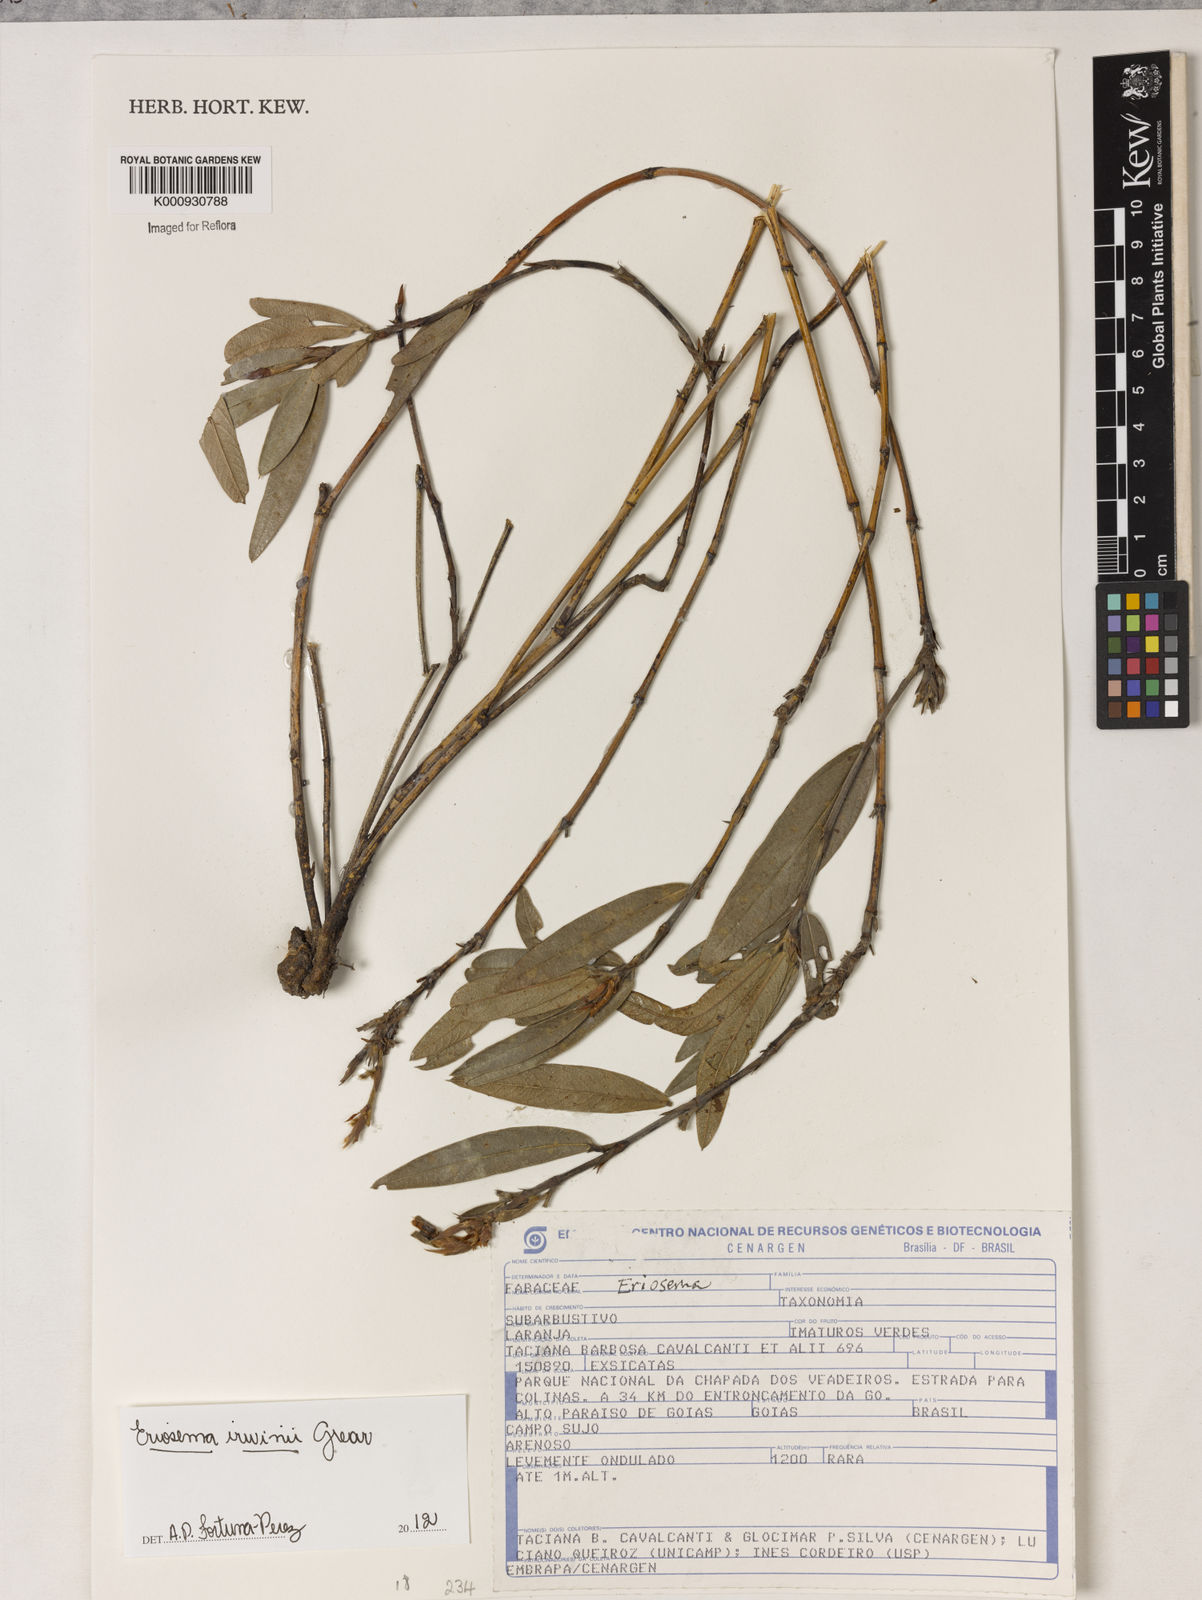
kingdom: Plantae
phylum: Tracheophyta
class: Magnoliopsida
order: Fabales
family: Fabaceae
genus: Eriosema
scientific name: Eriosema irwinii
